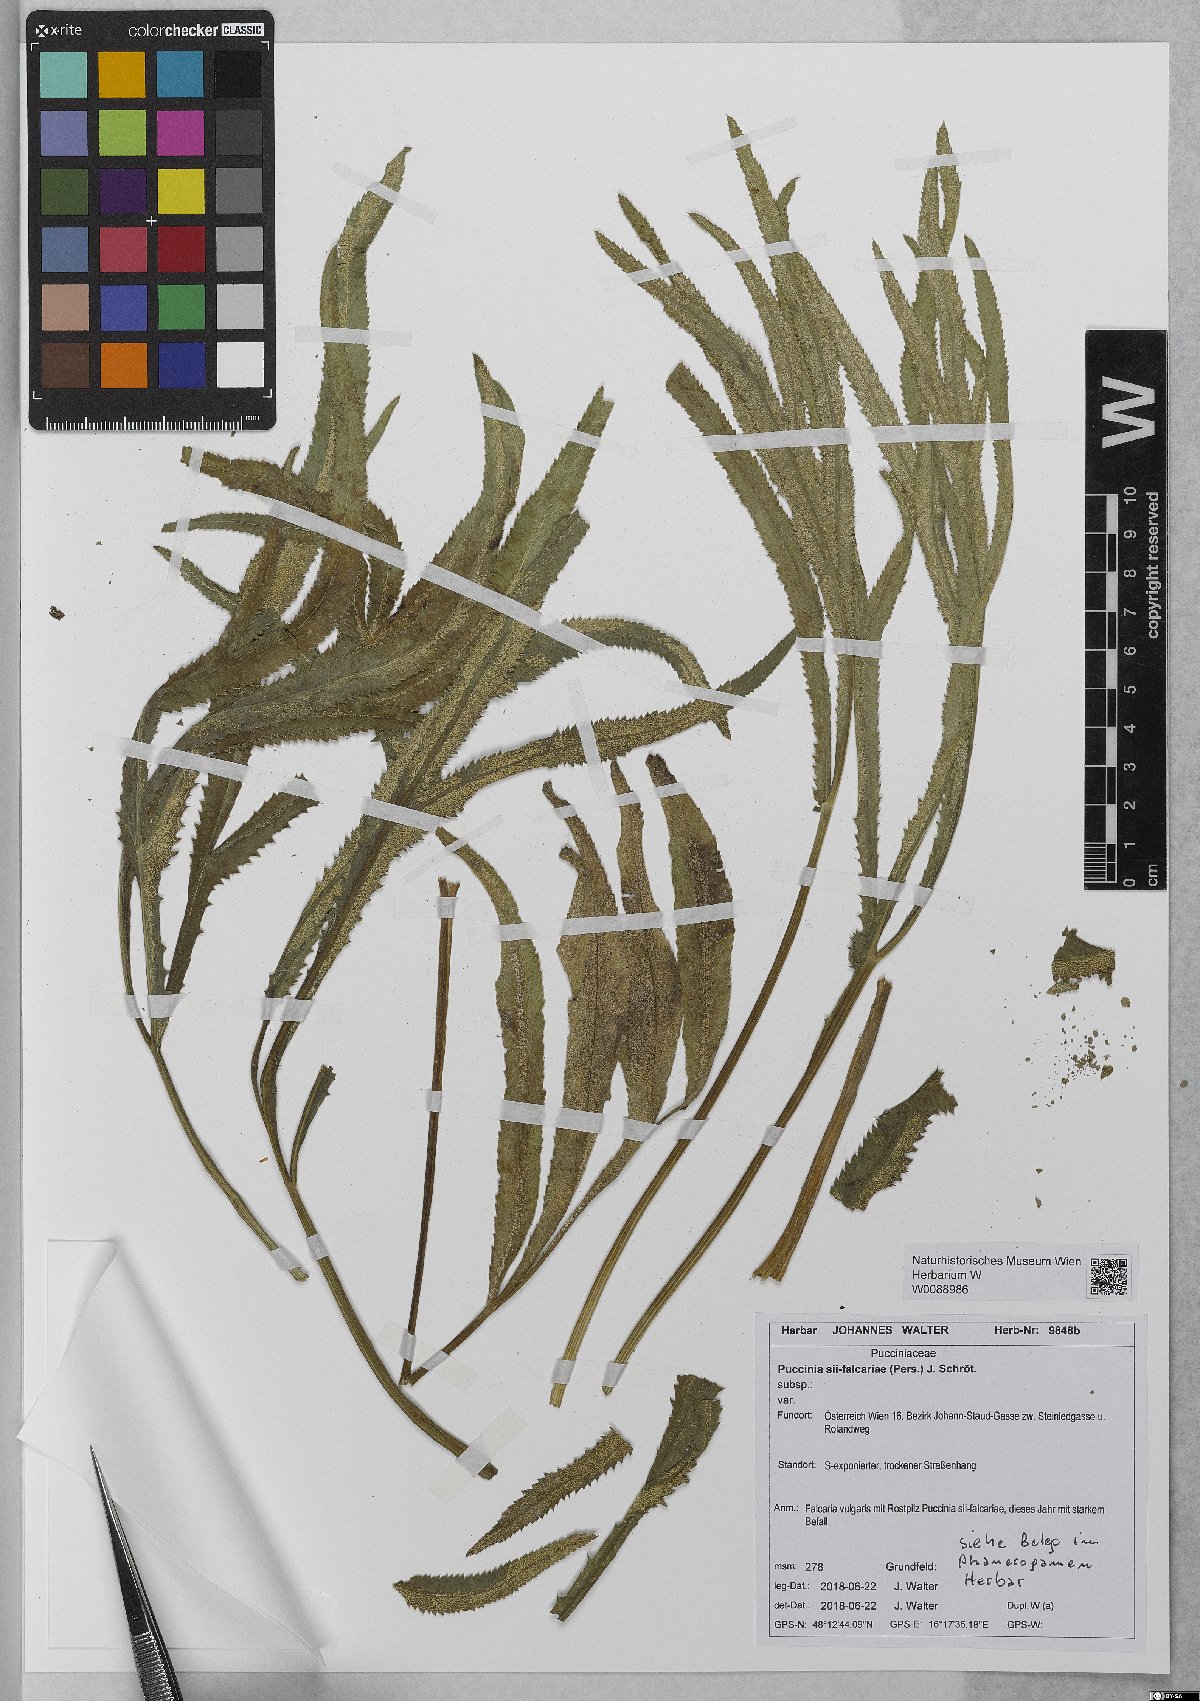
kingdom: Fungi
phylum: Basidiomycota
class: Pucciniomycetes
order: Pucciniales
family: Pucciniaceae
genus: Puccinia
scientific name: Puccinia sii-falcariae
